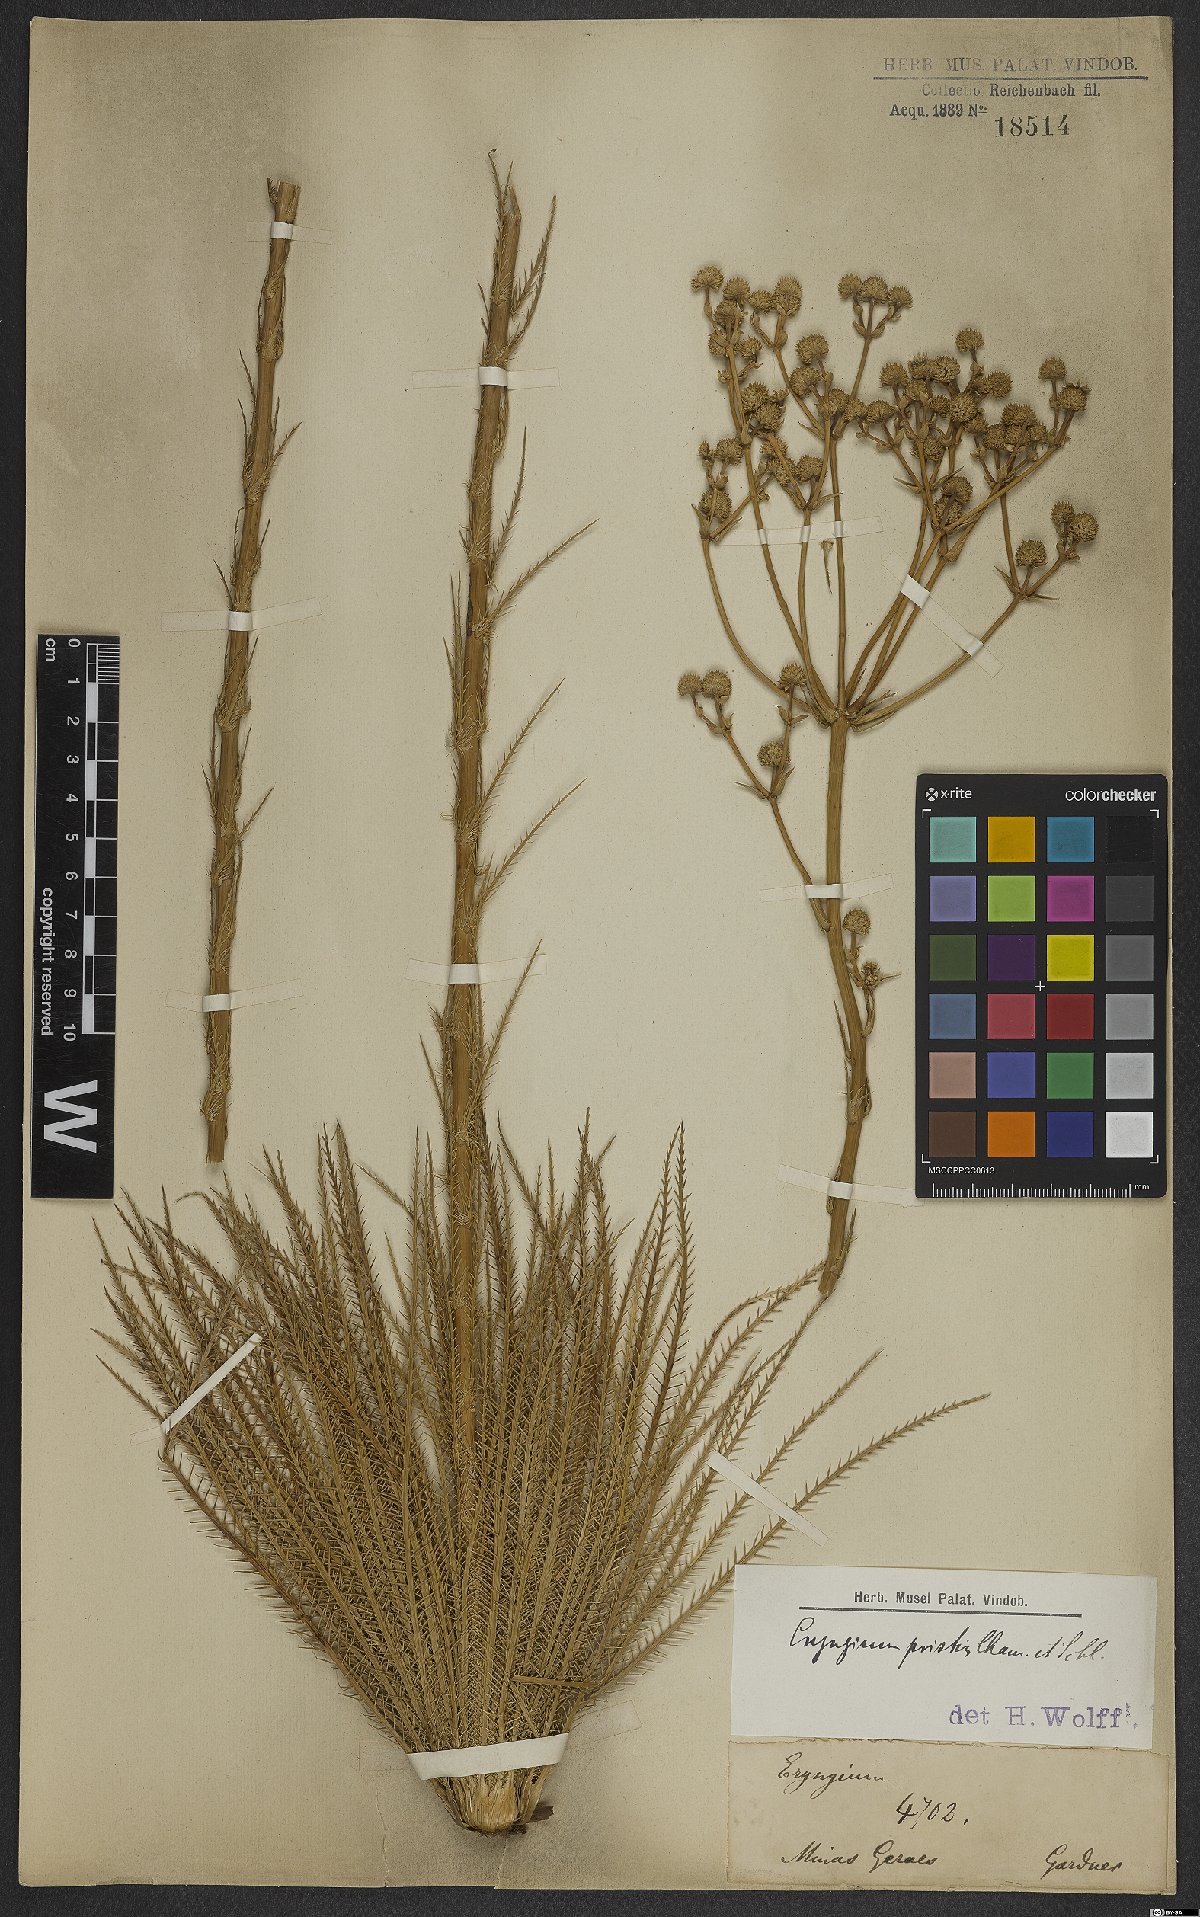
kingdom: Plantae
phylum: Tracheophyta
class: Magnoliopsida
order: Apiales
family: Apiaceae
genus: Eryngium
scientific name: Eryngium pristis
